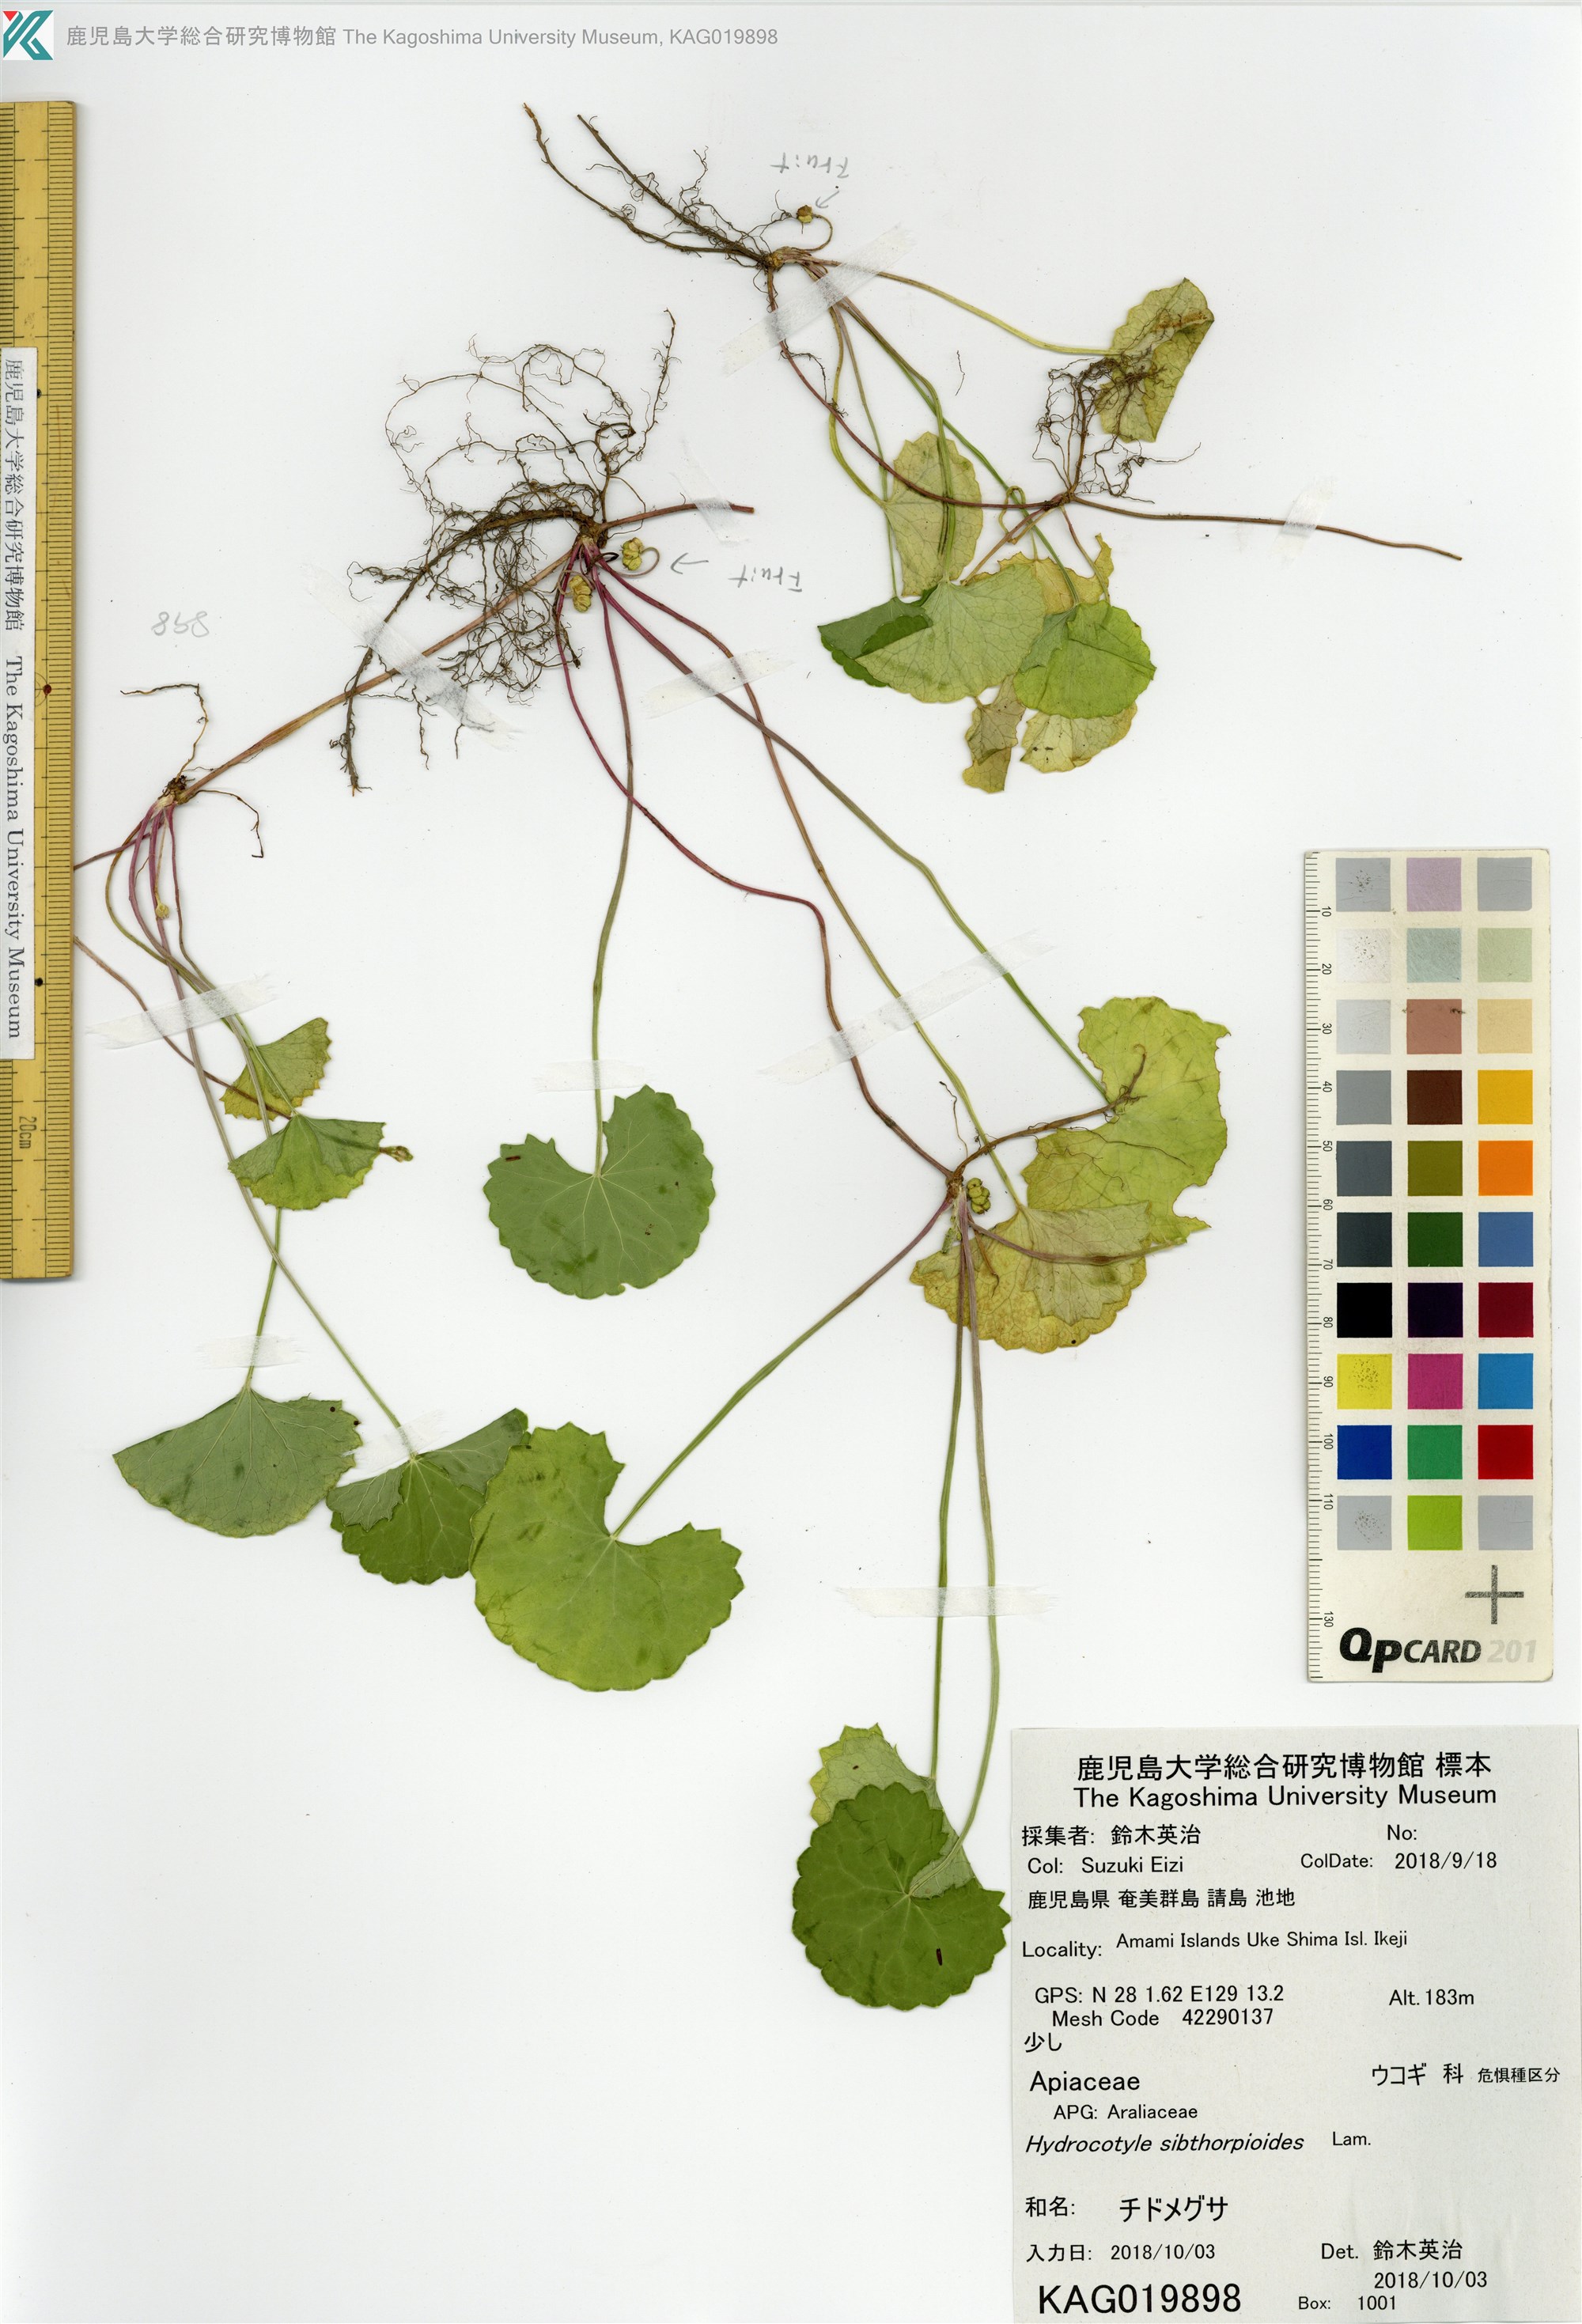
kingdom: Plantae
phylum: Tracheophyta
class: Magnoliopsida
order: Apiales
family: Apiaceae
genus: Centella
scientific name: Centella asiatica
